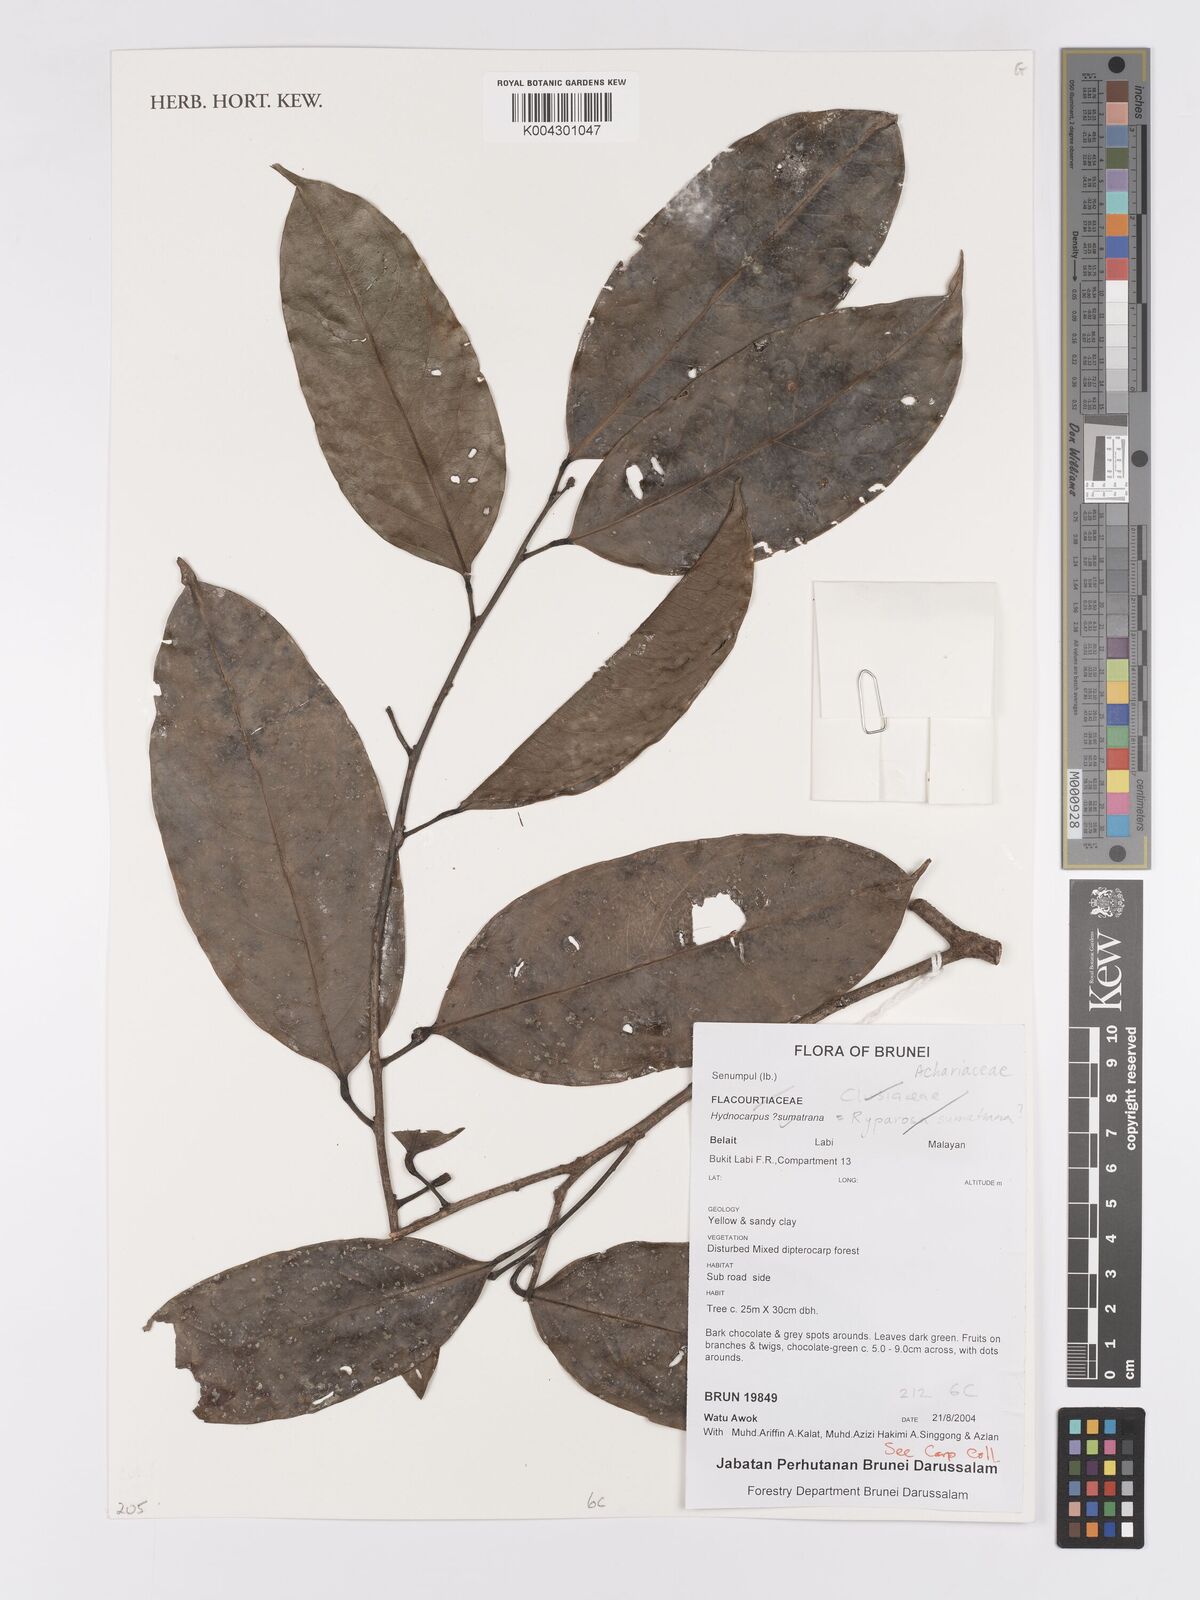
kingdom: Plantae
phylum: Tracheophyta
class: Magnoliopsida
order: Malpighiales
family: Achariaceae
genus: Hydnocarpus
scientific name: Hydnocarpus sumatranus
